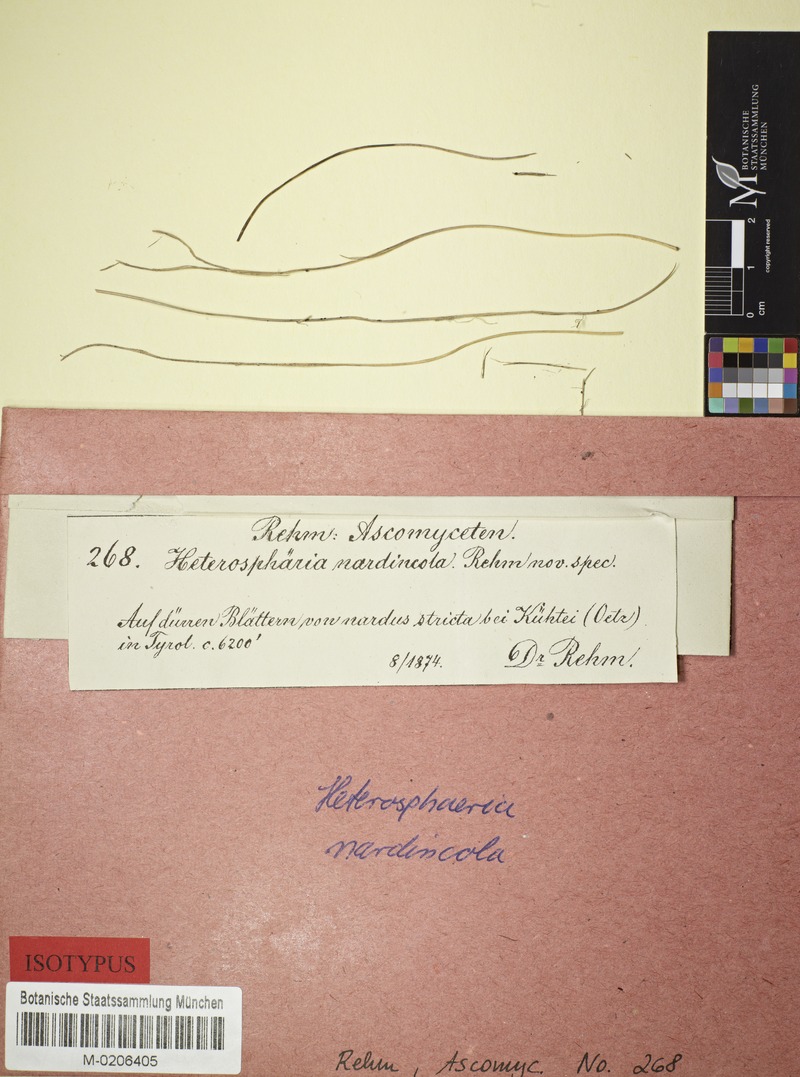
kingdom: Fungi
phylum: Ascomycota
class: Leotiomycetes
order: Helotiales
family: Cenangiaceae
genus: Crumenula
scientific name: Crumenula nardincola
